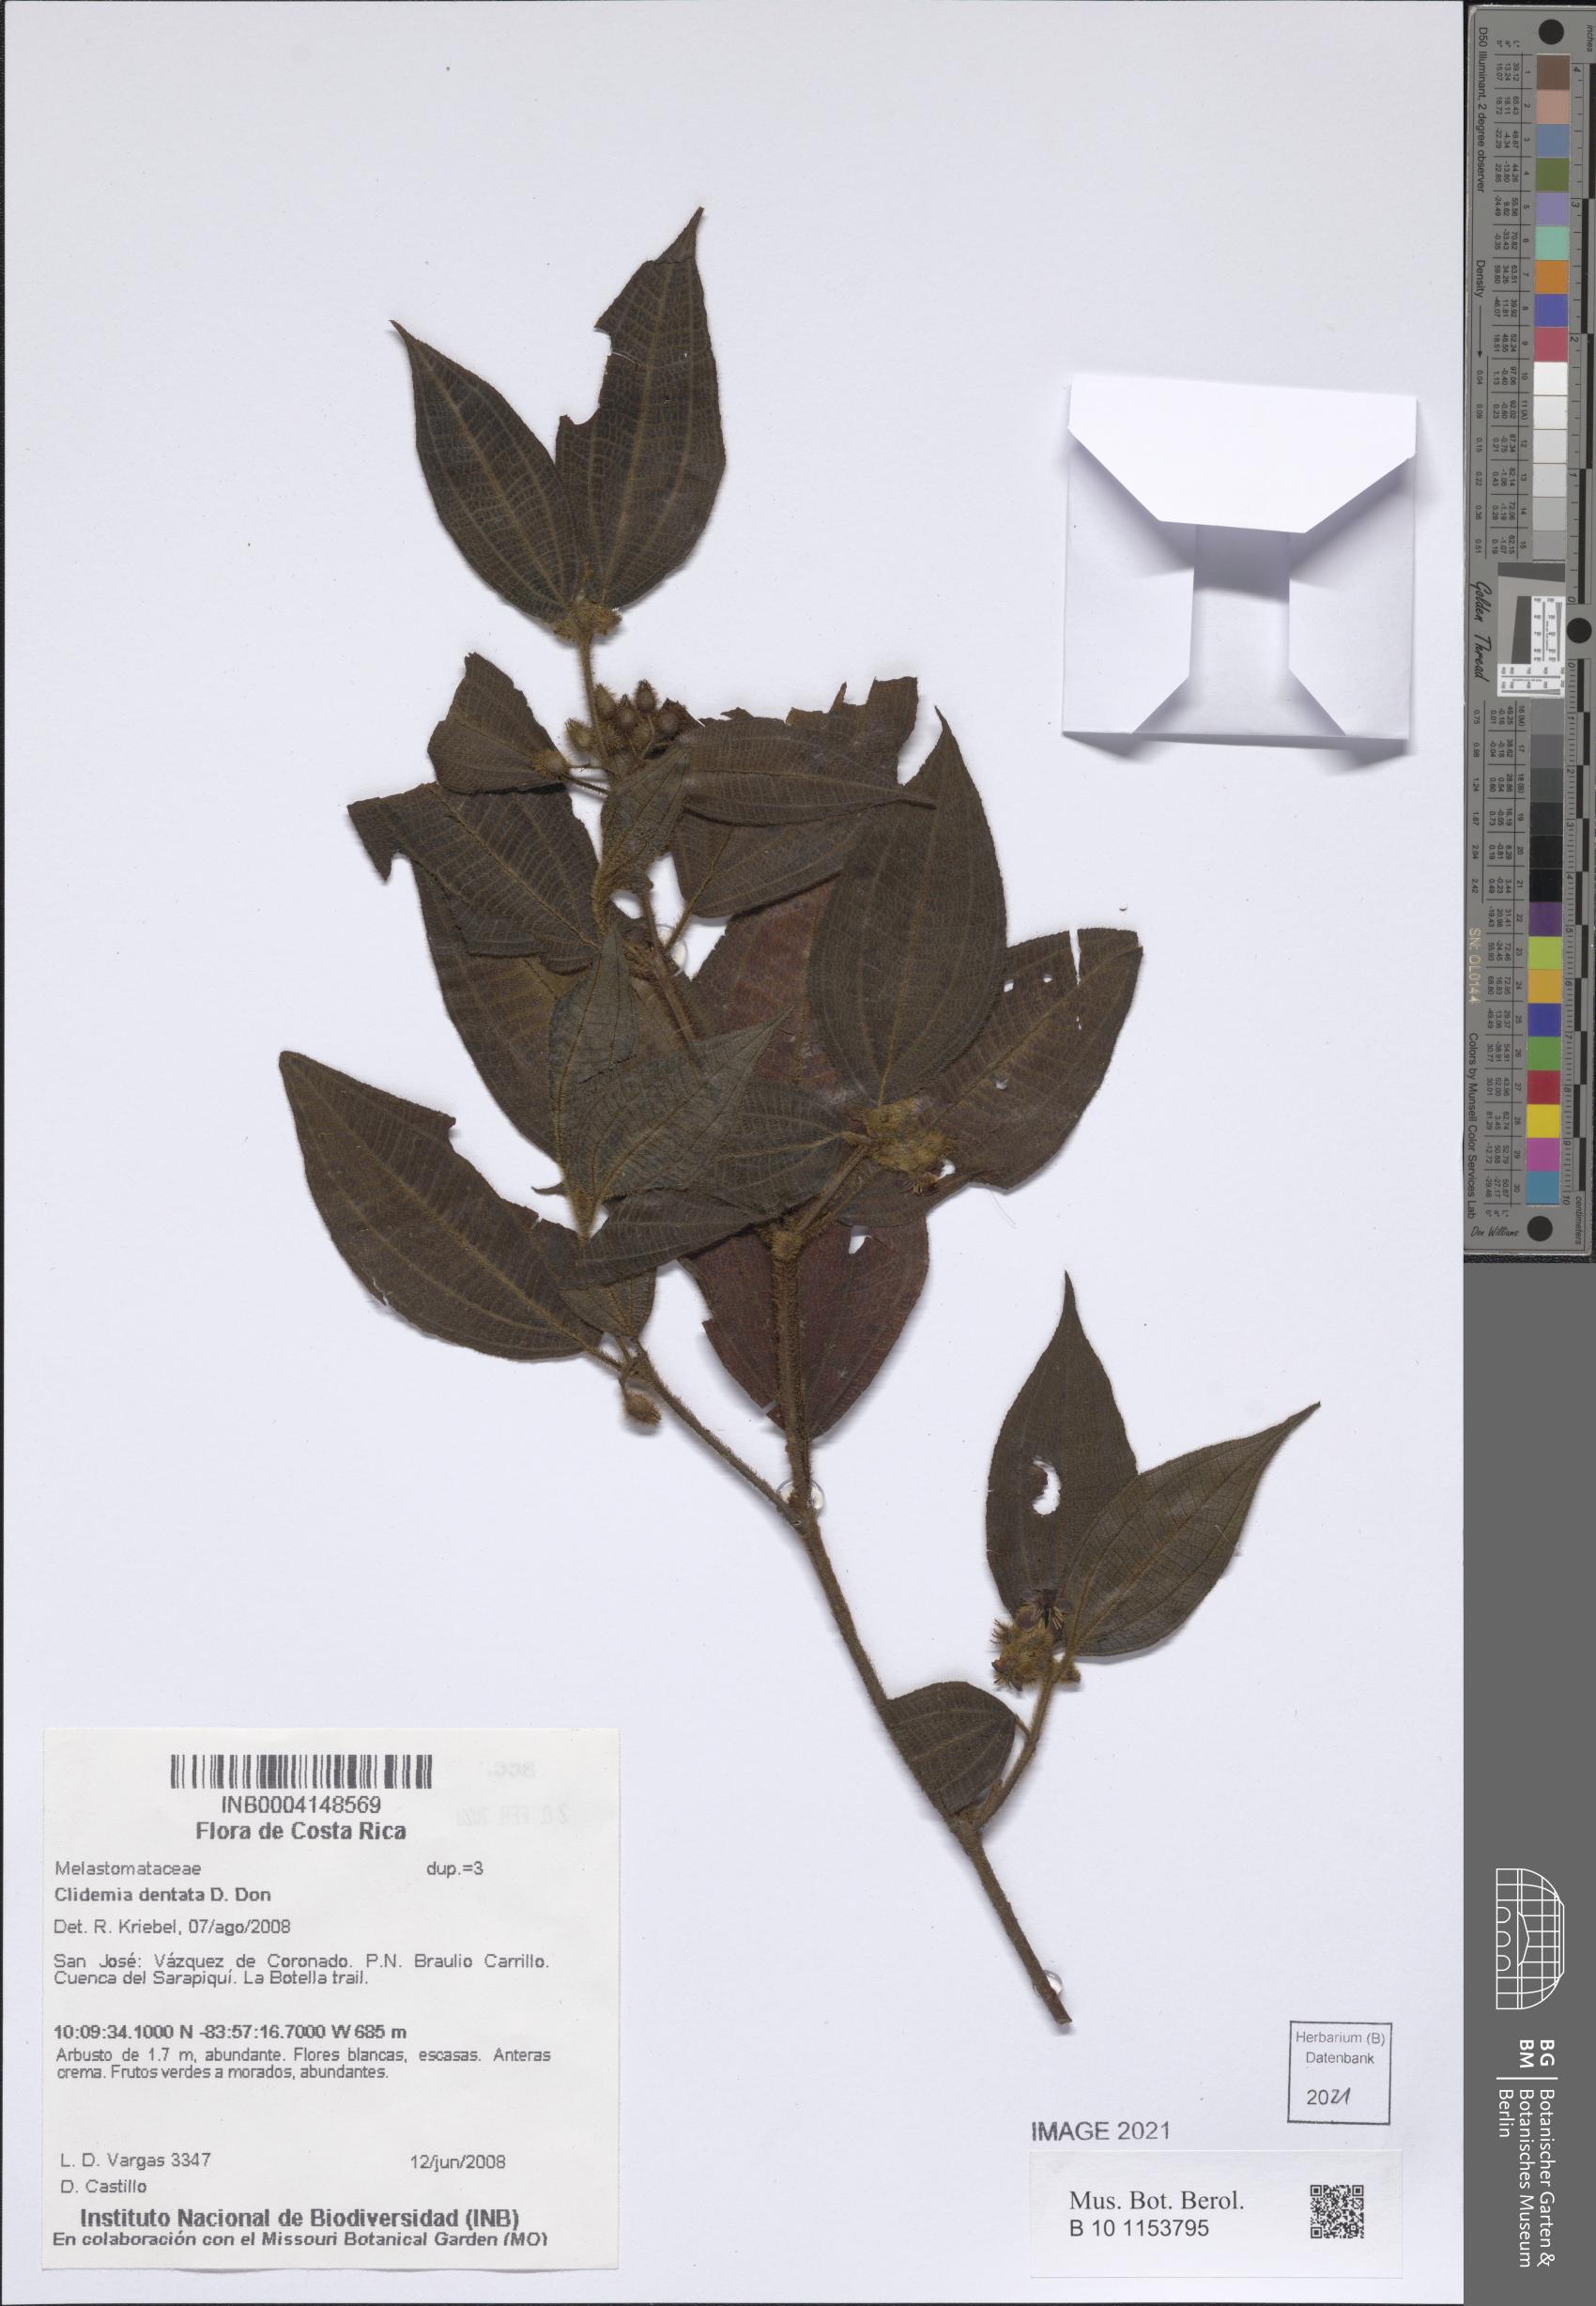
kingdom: Plantae
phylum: Tracheophyta
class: Magnoliopsida
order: Myrtales
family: Melastomataceae
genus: Miconia
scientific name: Miconia dentata
